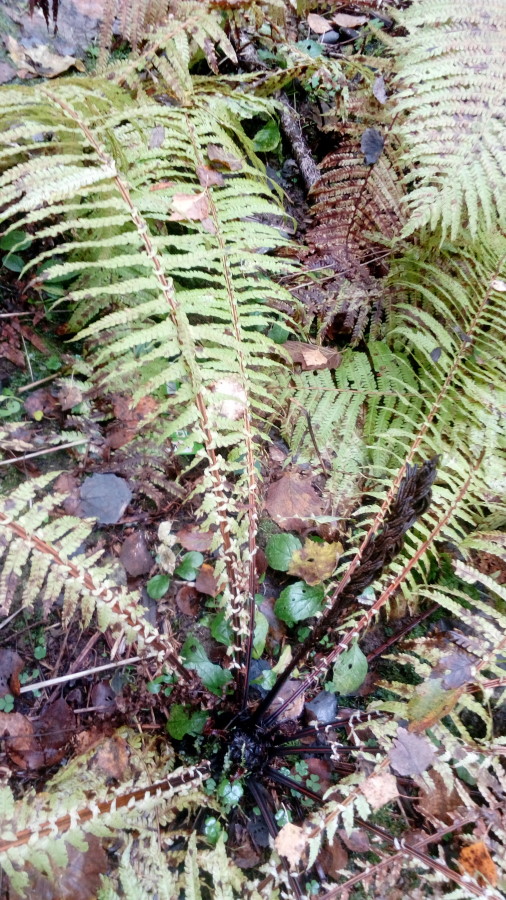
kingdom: Plantae
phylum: Tracheophyta
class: Polypodiopsida
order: Polypodiales
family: Onocleaceae
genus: Matteuccia
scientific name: Matteuccia struthiopteris
